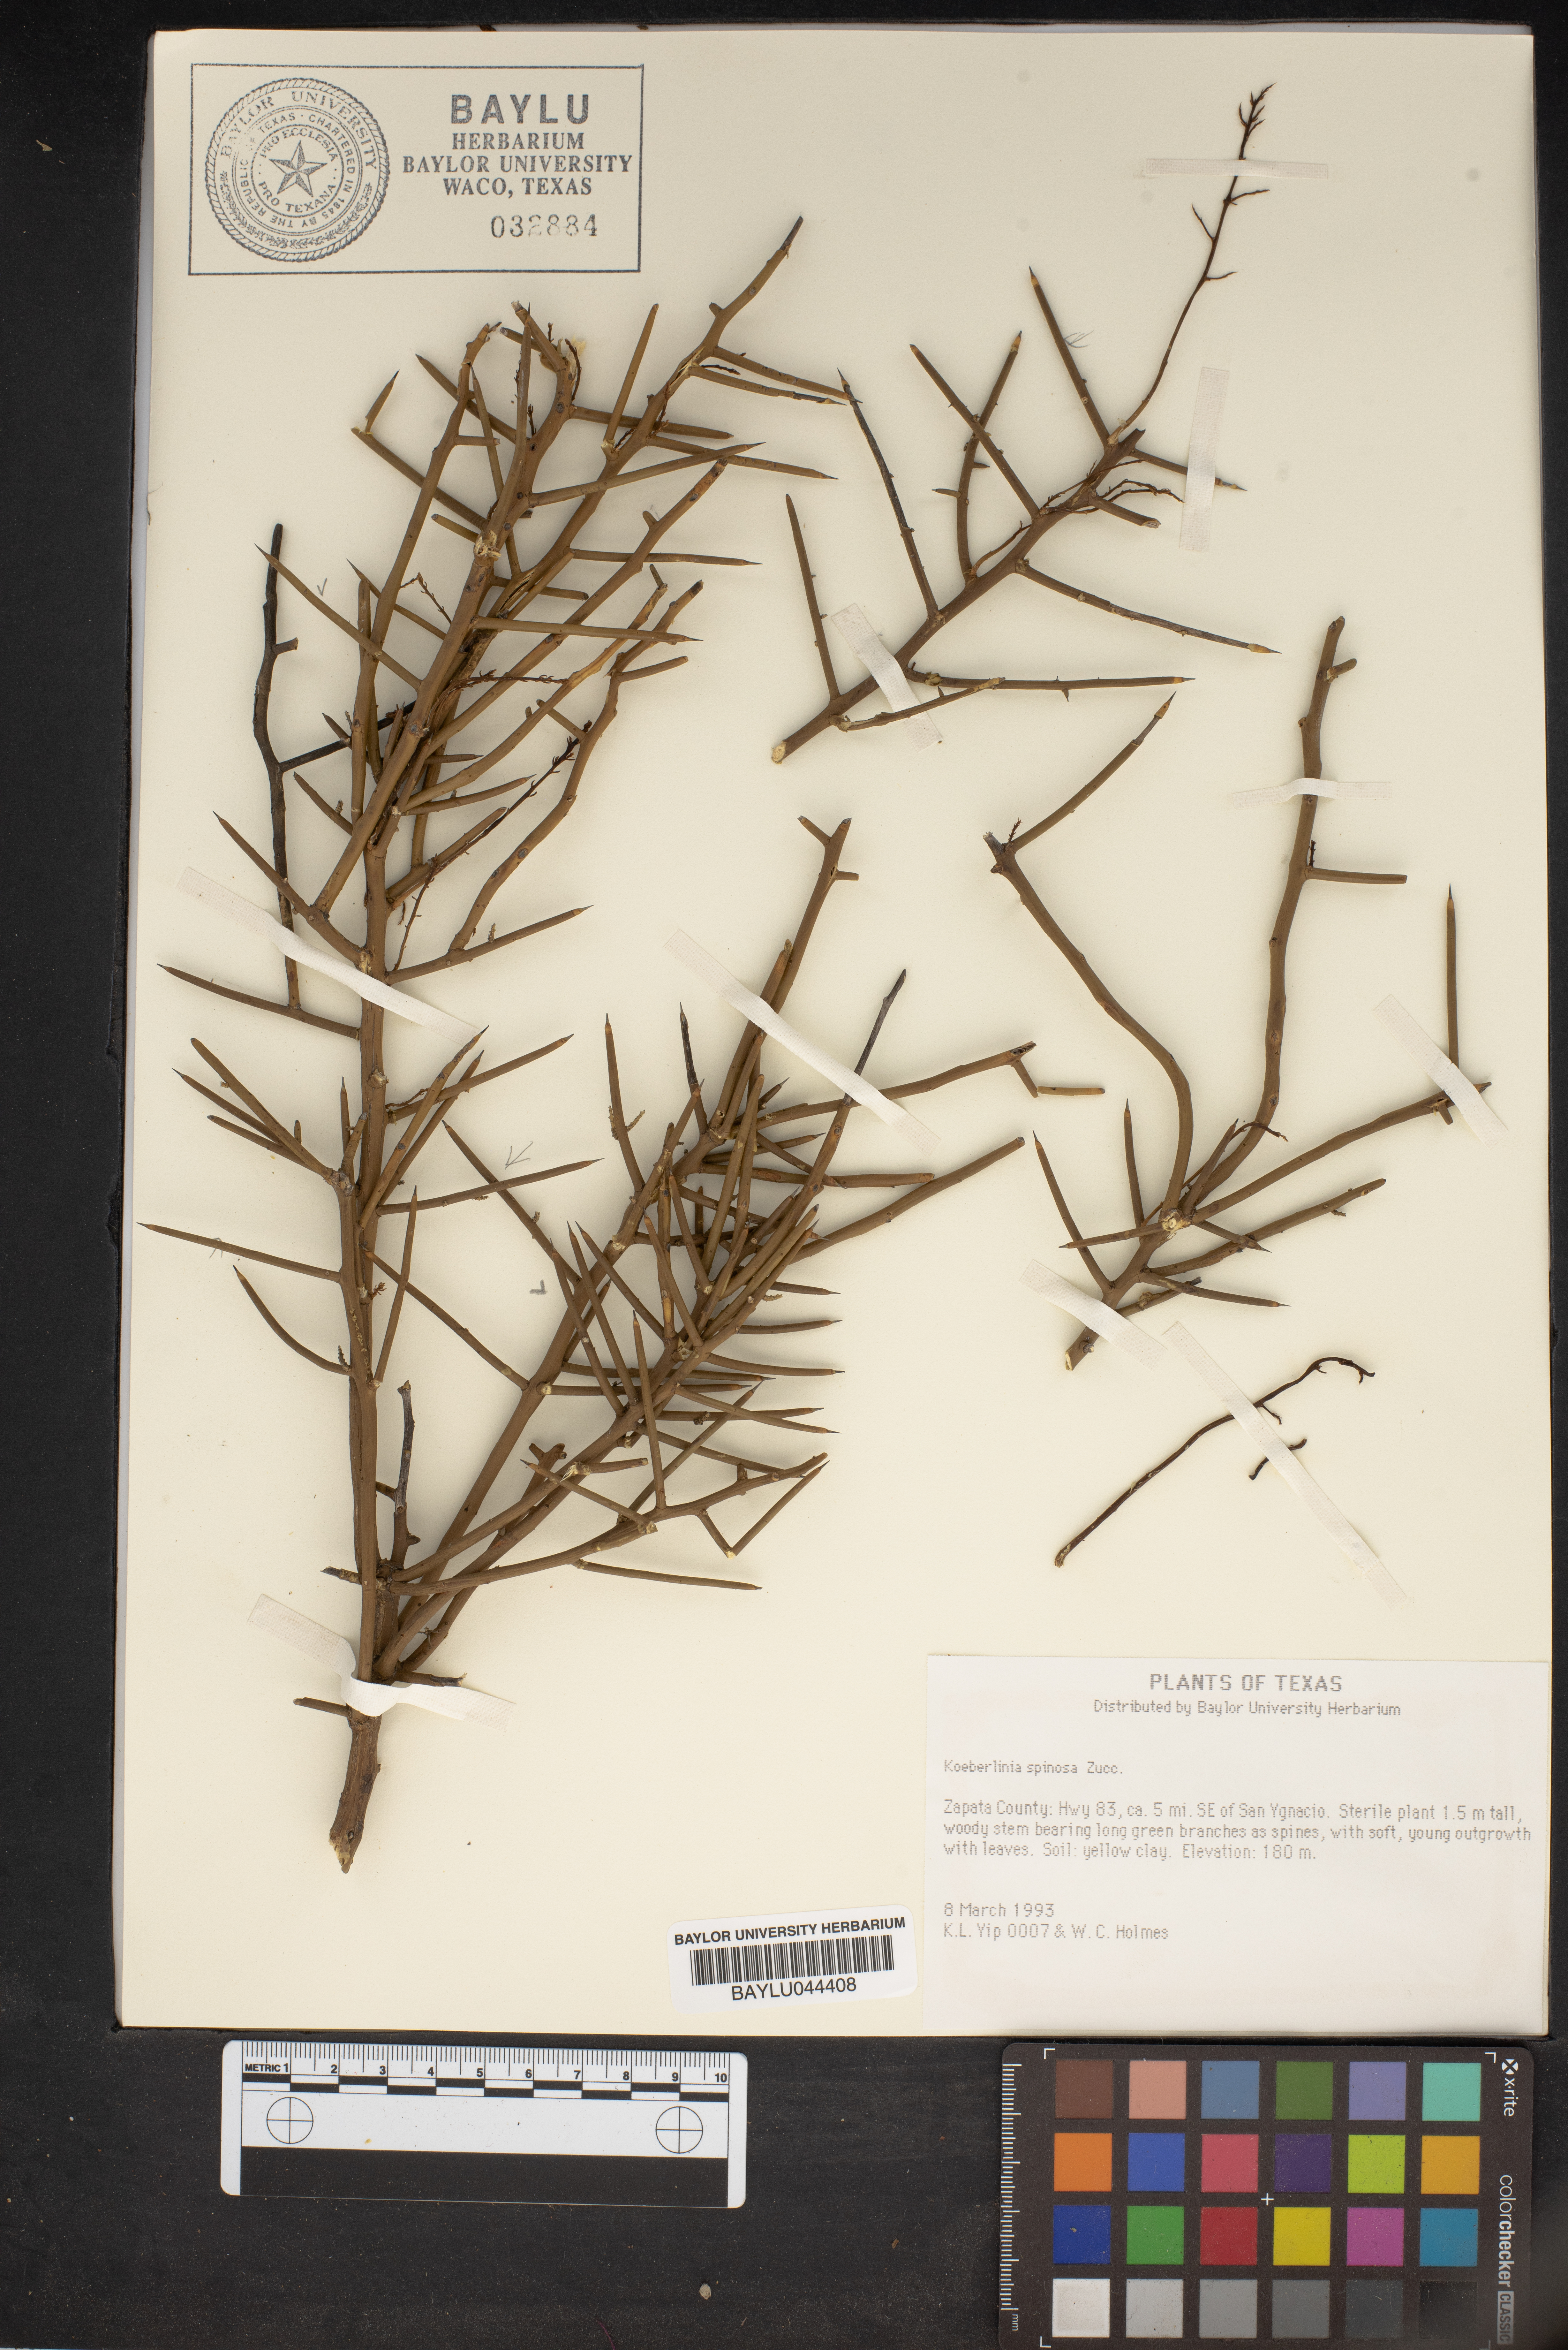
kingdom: Plantae
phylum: Tracheophyta
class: Magnoliopsida
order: Brassicales
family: Koeberliniaceae
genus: Koeberlinia
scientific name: Koeberlinia spinosa
